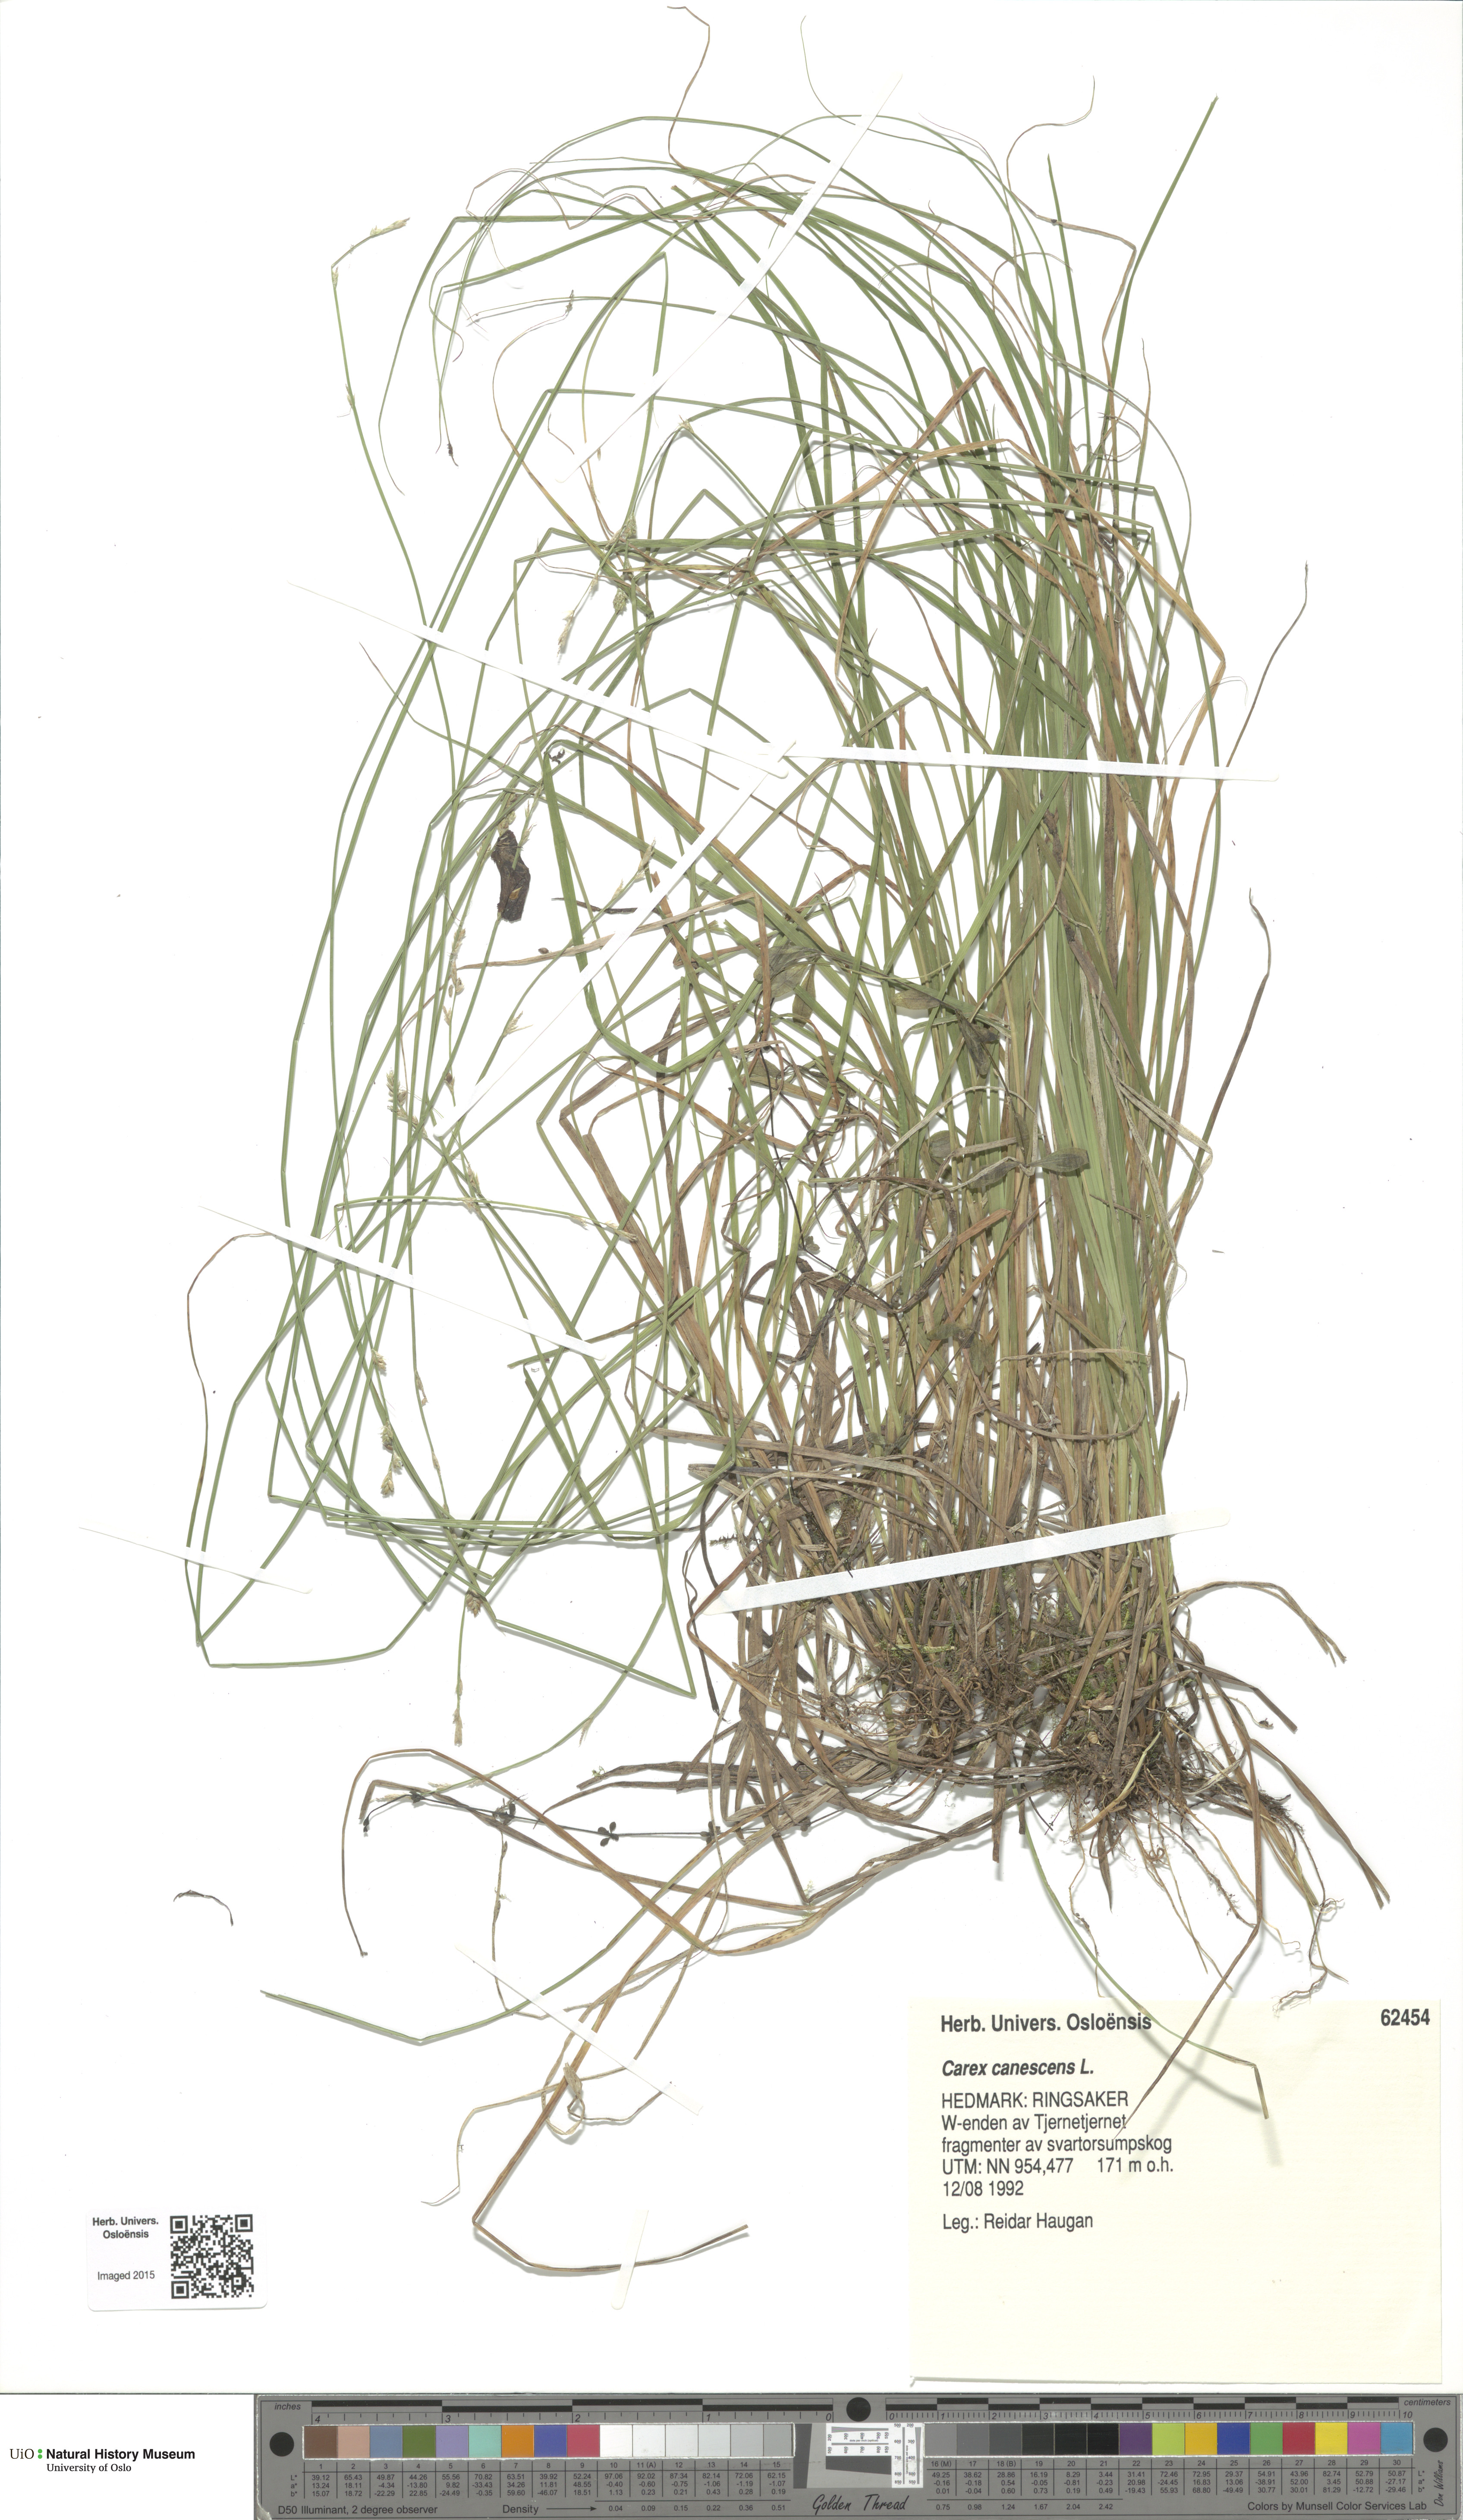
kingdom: Plantae
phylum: Tracheophyta
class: Liliopsida
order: Poales
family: Cyperaceae
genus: Carex
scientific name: Carex canescens
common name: White sedge
